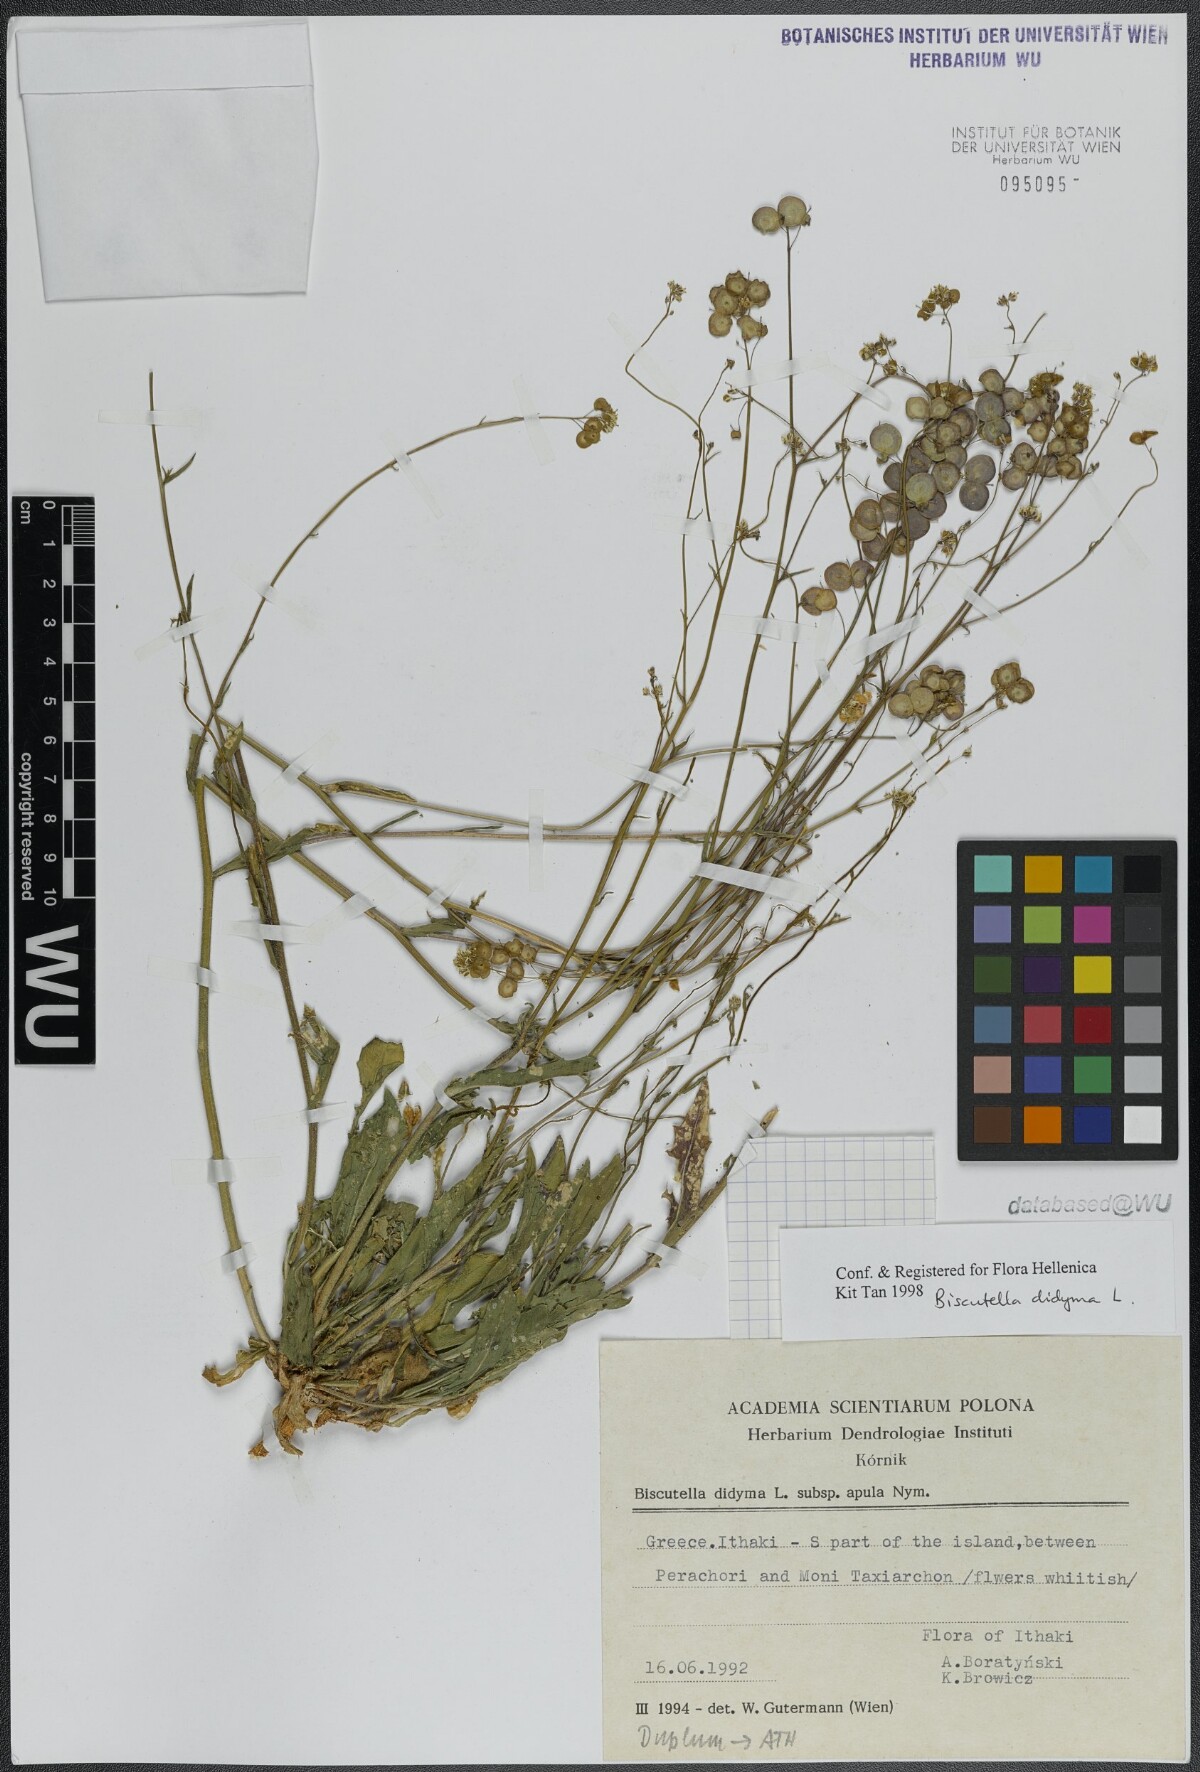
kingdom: Plantae
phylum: Tracheophyta
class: Magnoliopsida
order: Brassicales
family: Brassicaceae
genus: Biscutella
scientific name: Biscutella didyma
